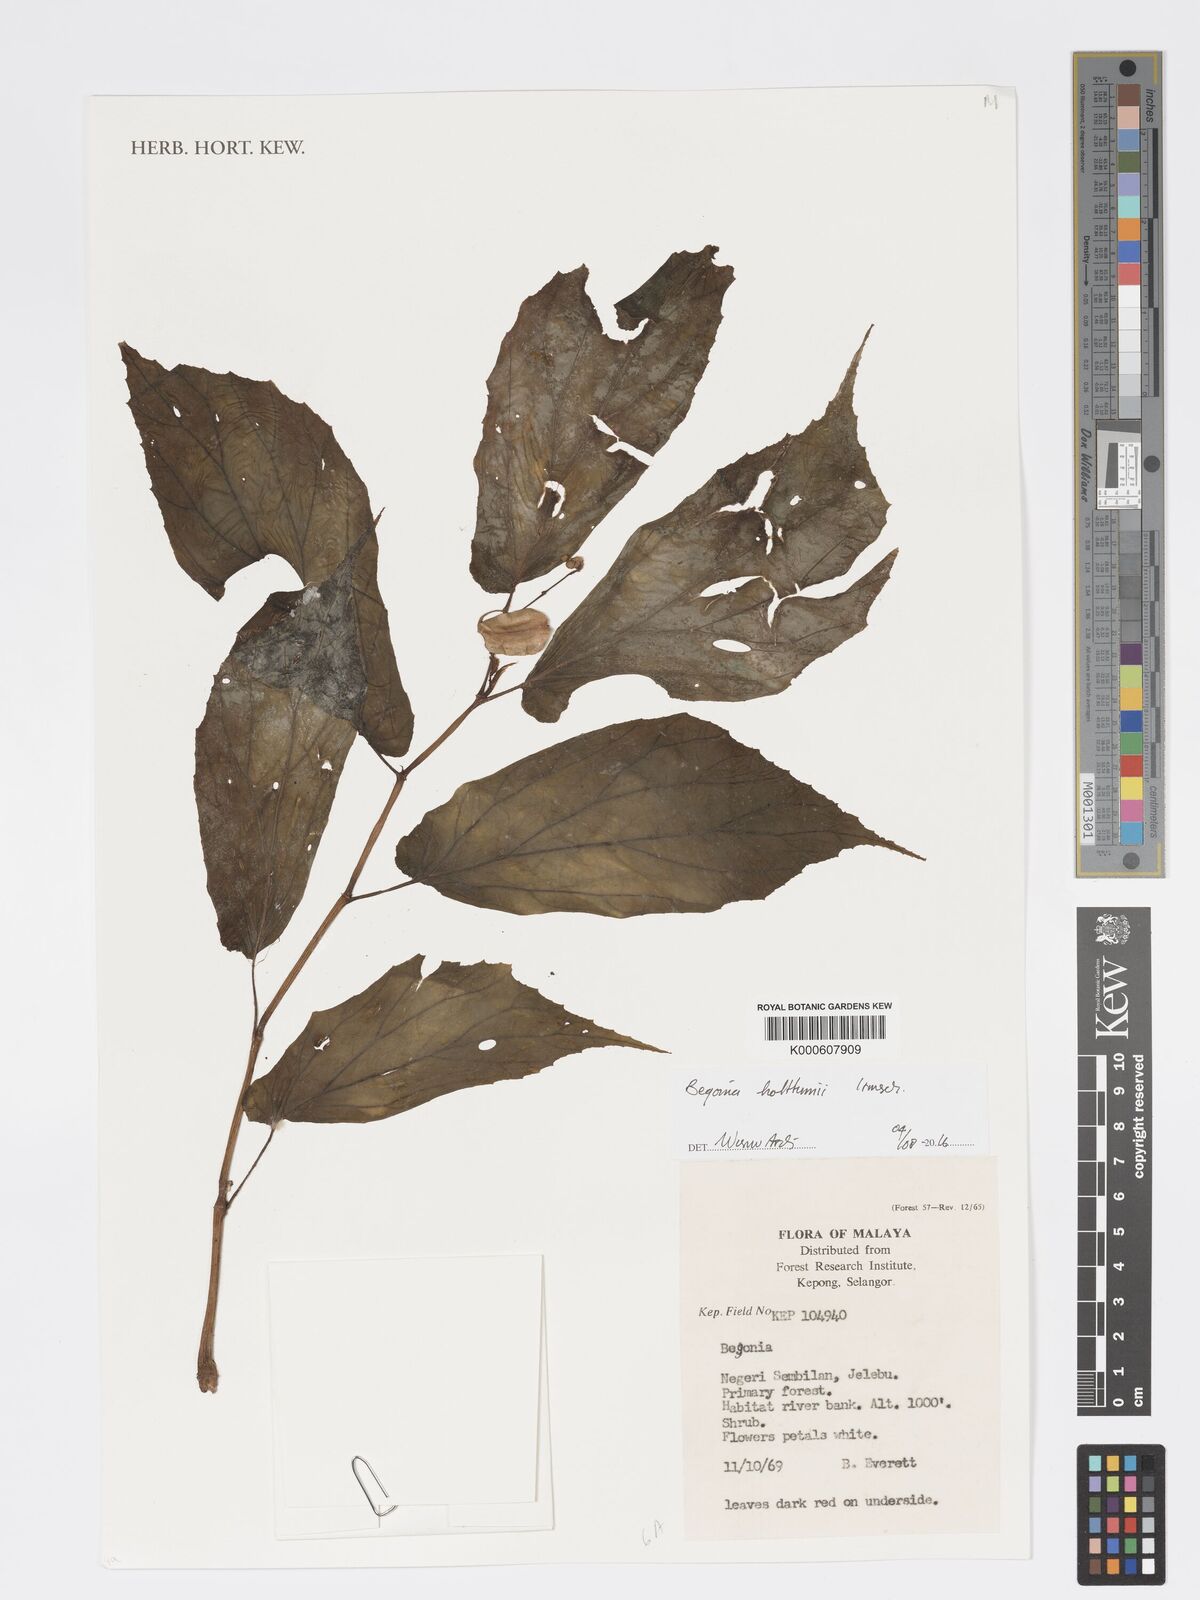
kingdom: Plantae
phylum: Tracheophyta
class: Magnoliopsida
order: Cucurbitales
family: Begoniaceae
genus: Begonia
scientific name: Begonia holttumii
